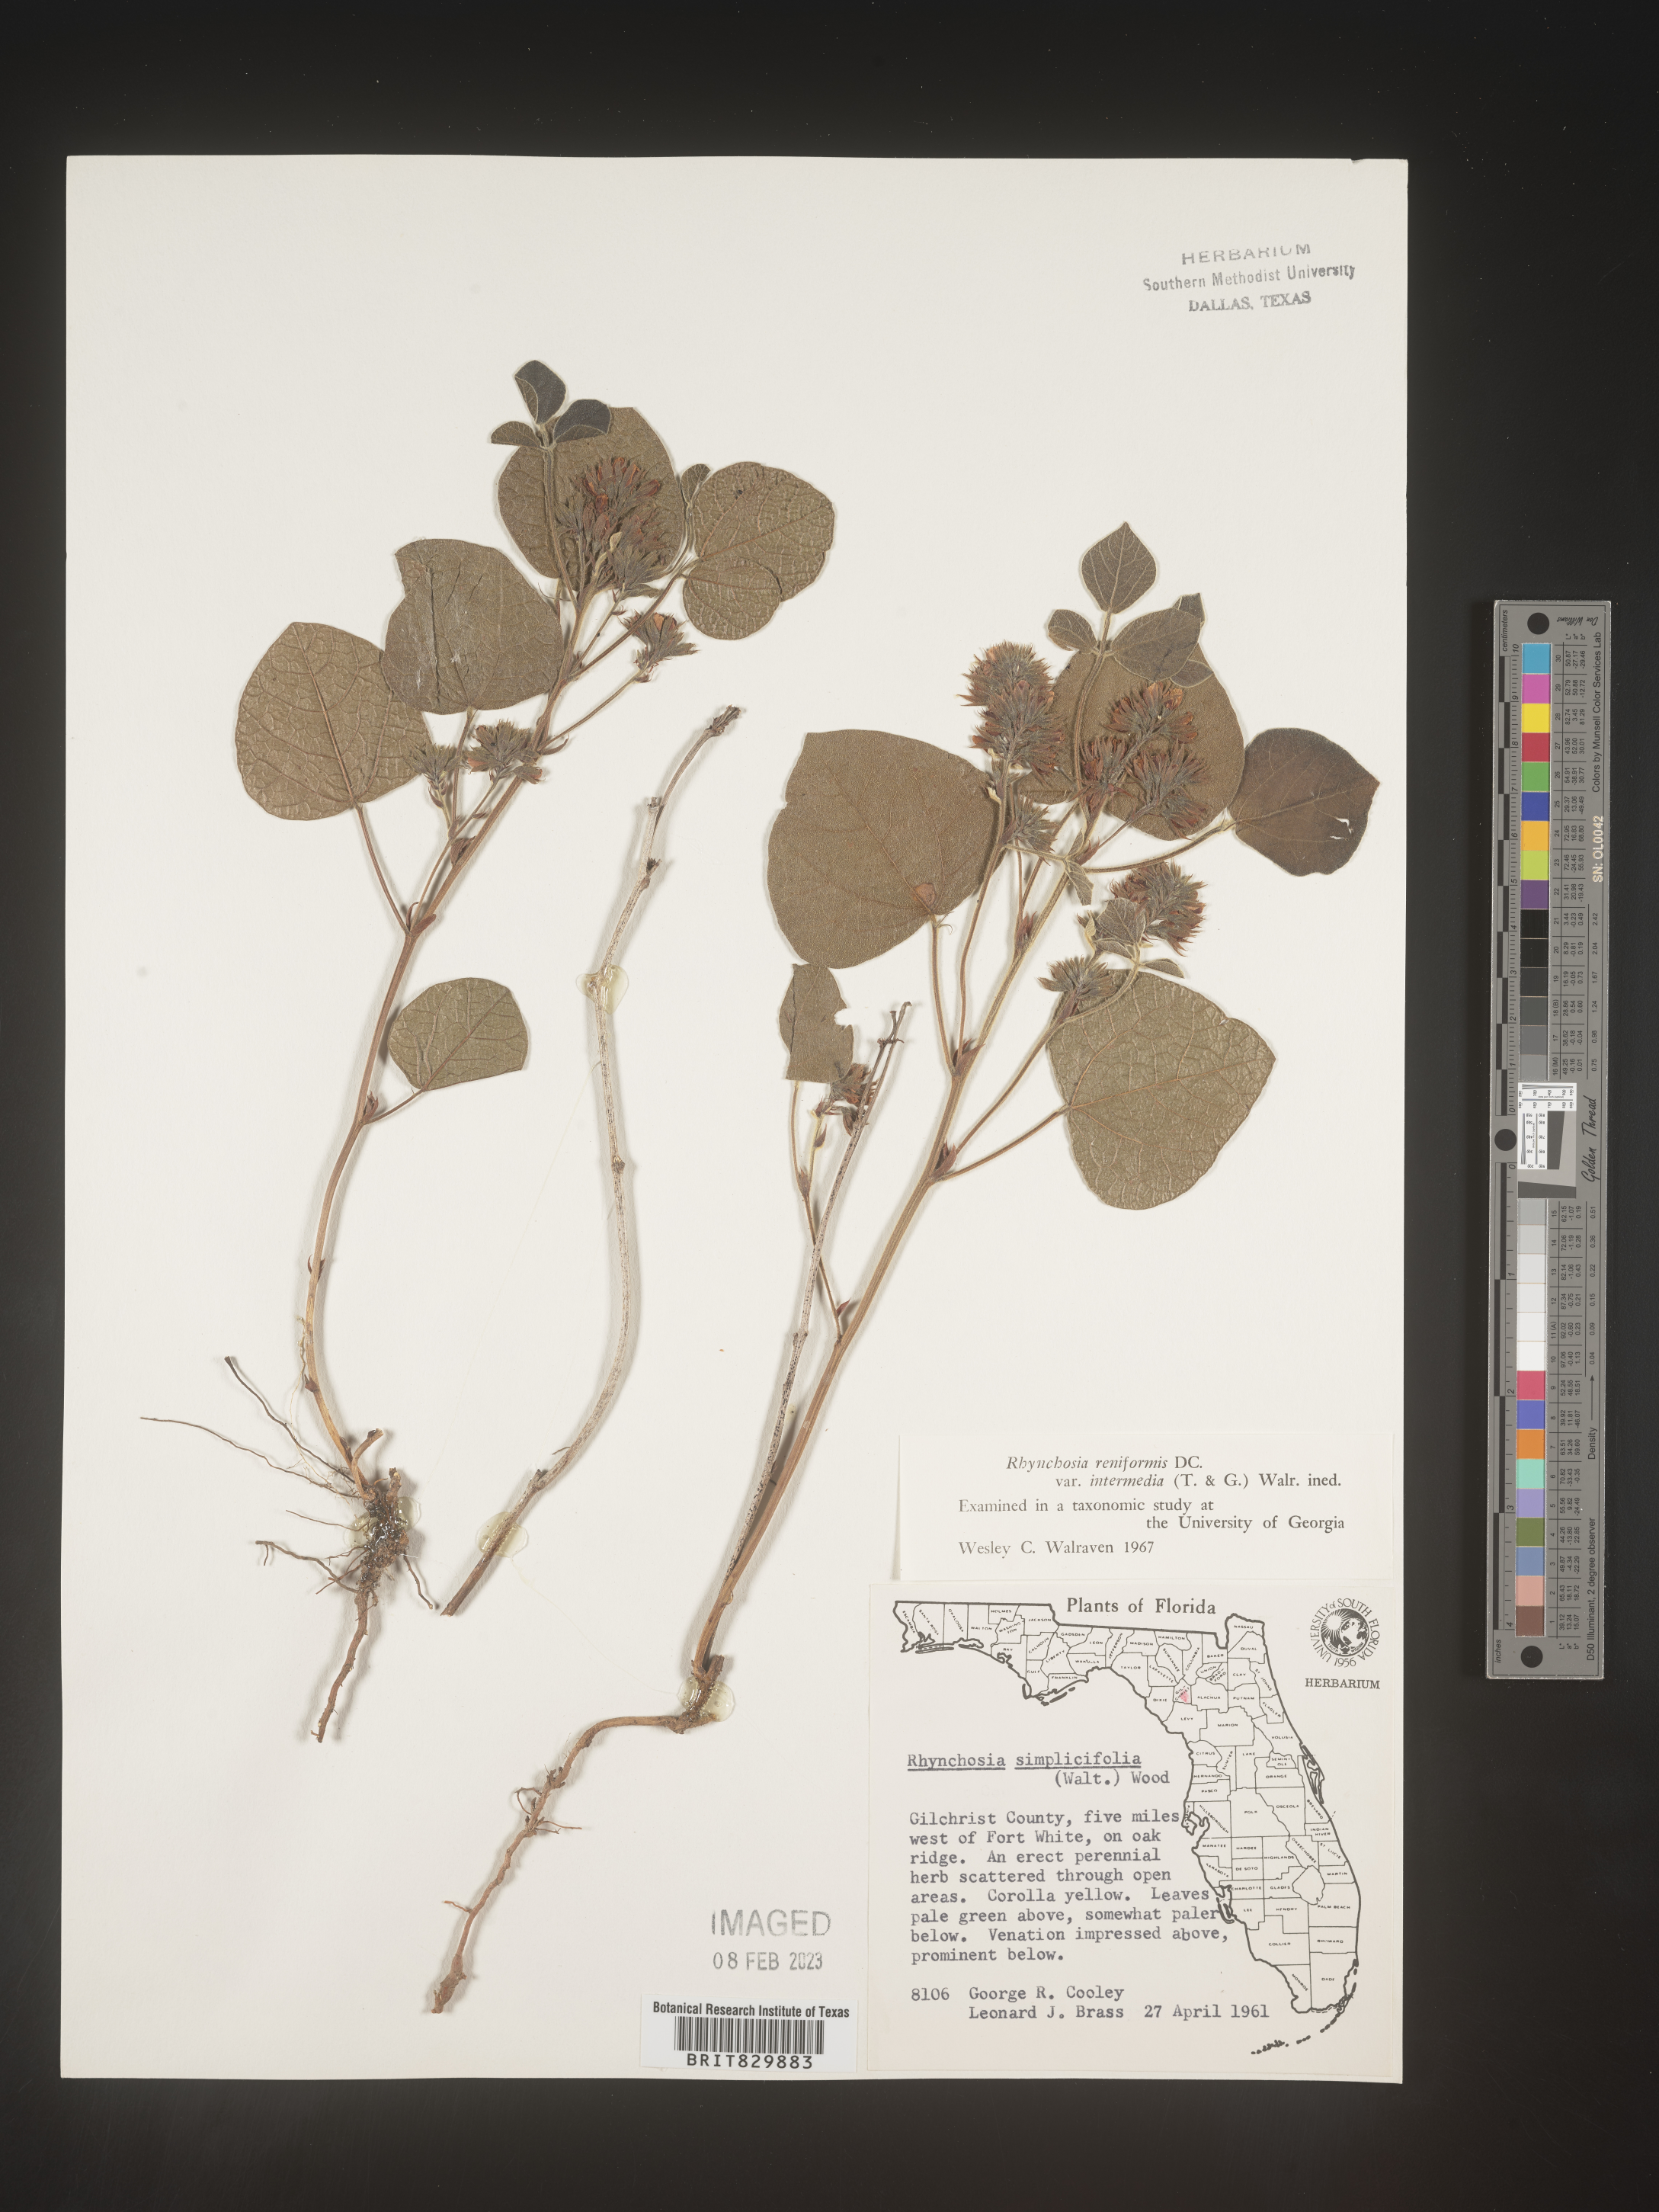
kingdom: Plantae
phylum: Tracheophyta
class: Magnoliopsida
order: Fabales
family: Fabaceae
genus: Rhynchosia
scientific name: Rhynchosia reniformis
